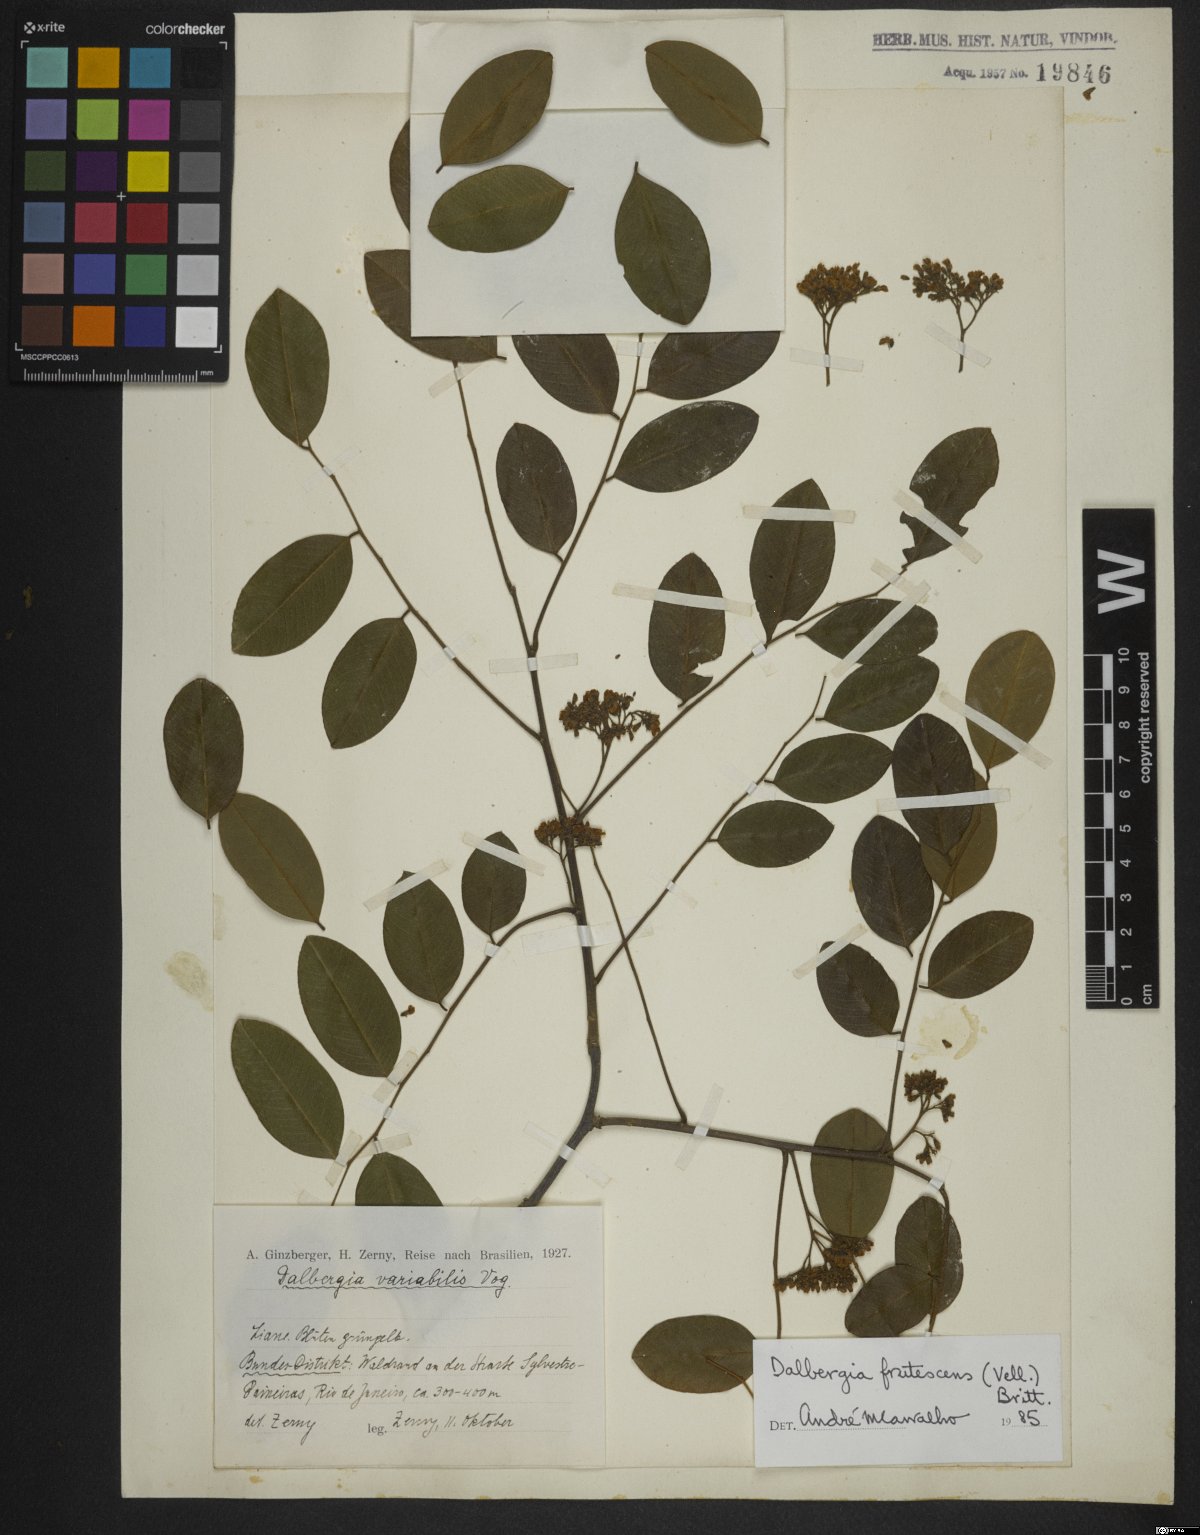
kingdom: Plantae
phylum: Tracheophyta
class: Magnoliopsida
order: Fabales
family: Fabaceae
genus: Dalbergia
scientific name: Dalbergia frutescens
